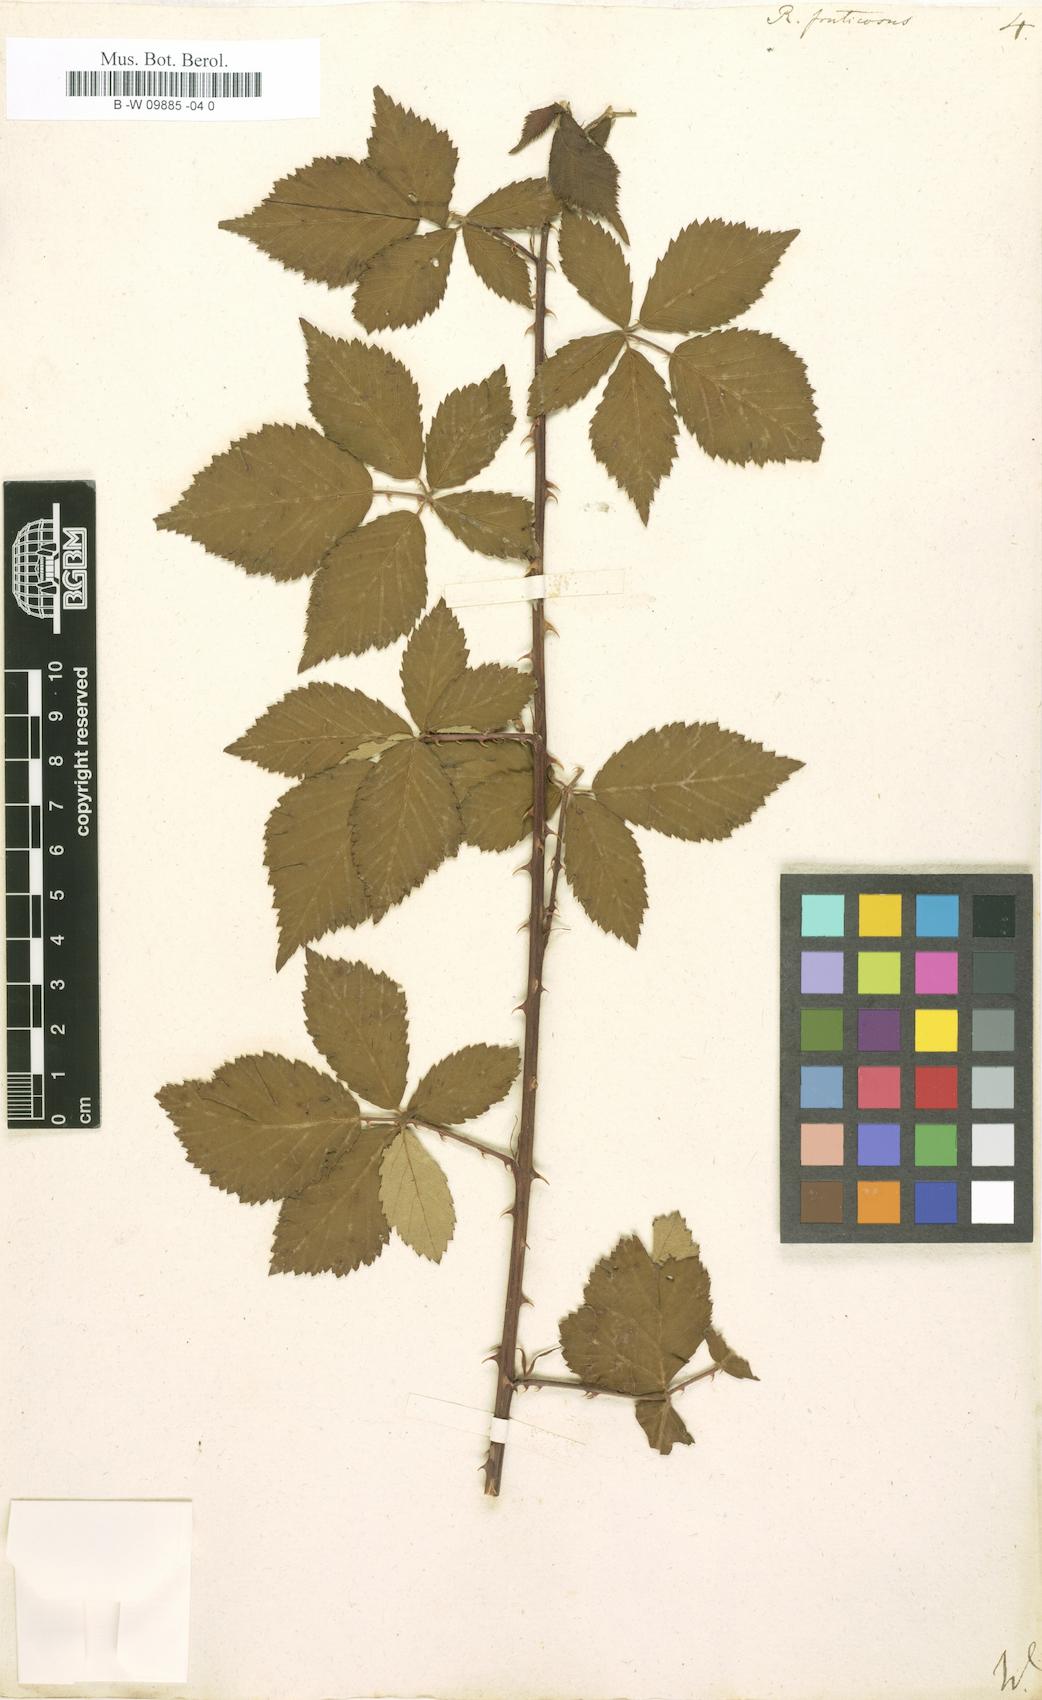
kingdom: Plantae
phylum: Tracheophyta
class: Magnoliopsida
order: Rosales
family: Rosaceae
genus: Rubus
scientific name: Rubus fruticosus
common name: Blackberry, bramble
